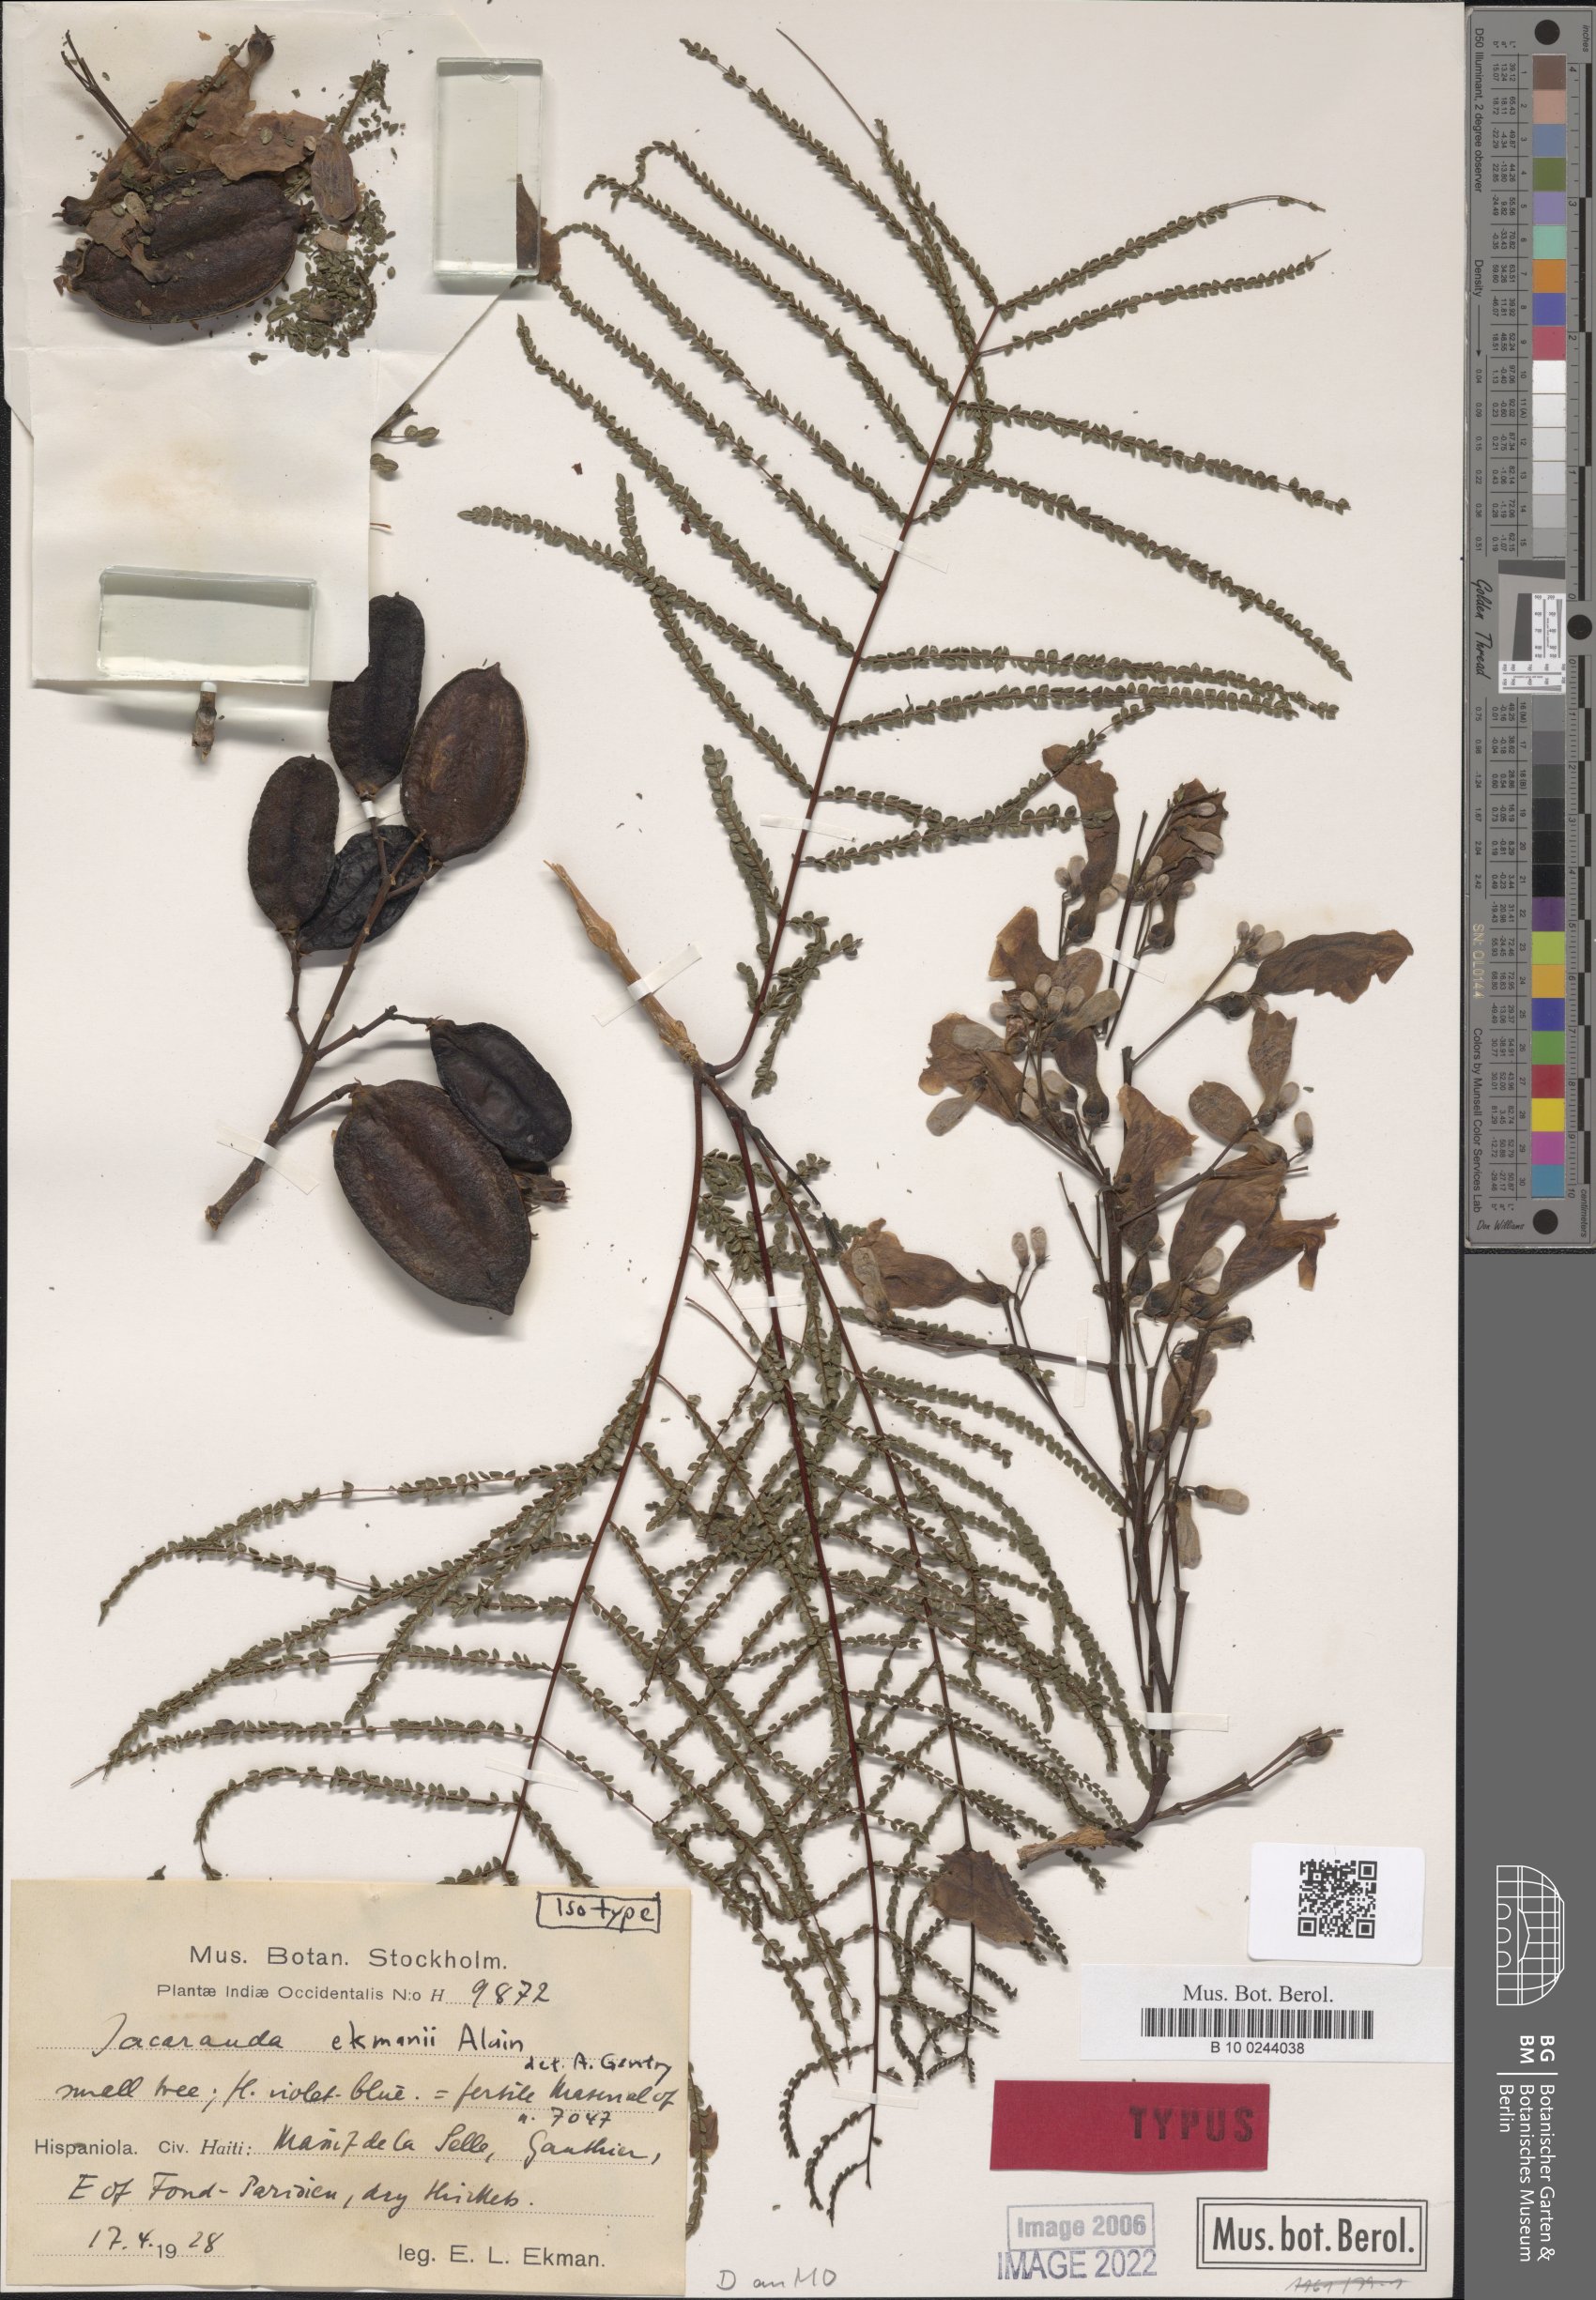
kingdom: Plantae
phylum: Tracheophyta
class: Magnoliopsida
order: Lamiales
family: Bignoniaceae
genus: Jacaranda
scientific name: Jacaranda ekmanii
